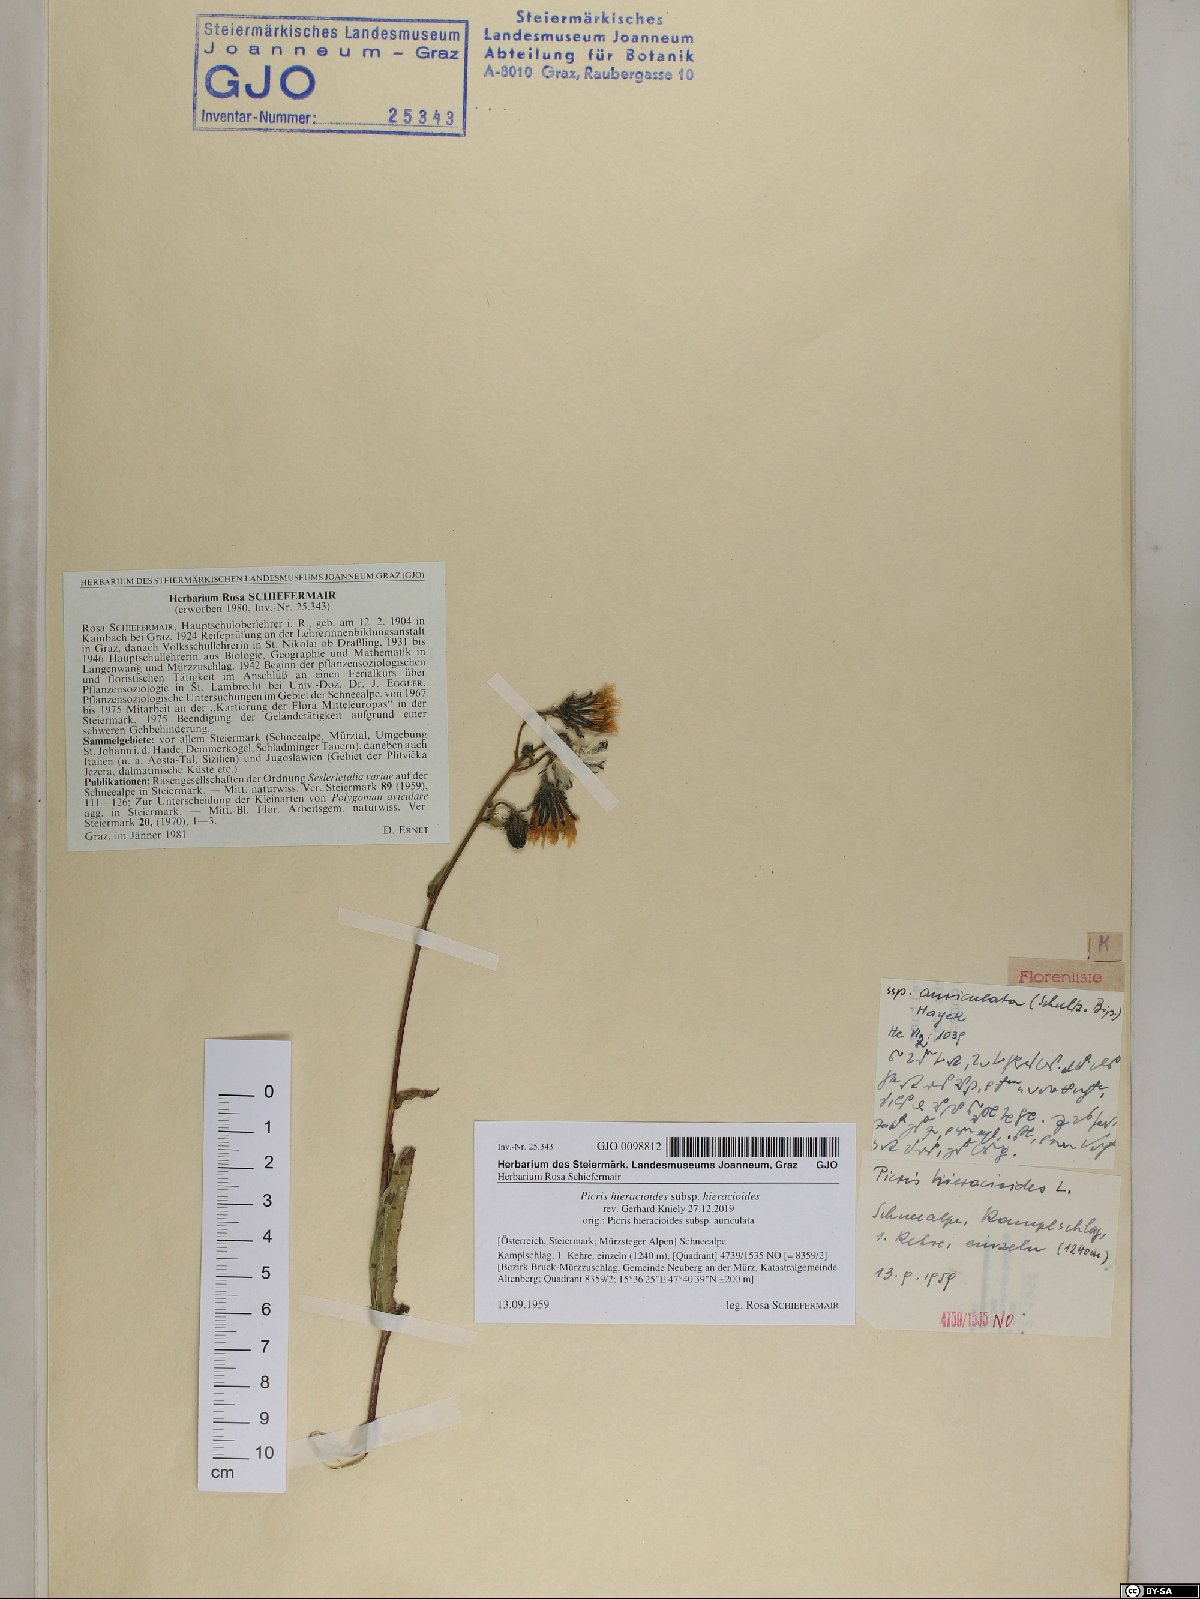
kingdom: Plantae
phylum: Tracheophyta
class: Magnoliopsida
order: Asterales
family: Asteraceae
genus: Picris
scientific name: Picris hieracioides
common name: Hawkweed oxtongue
